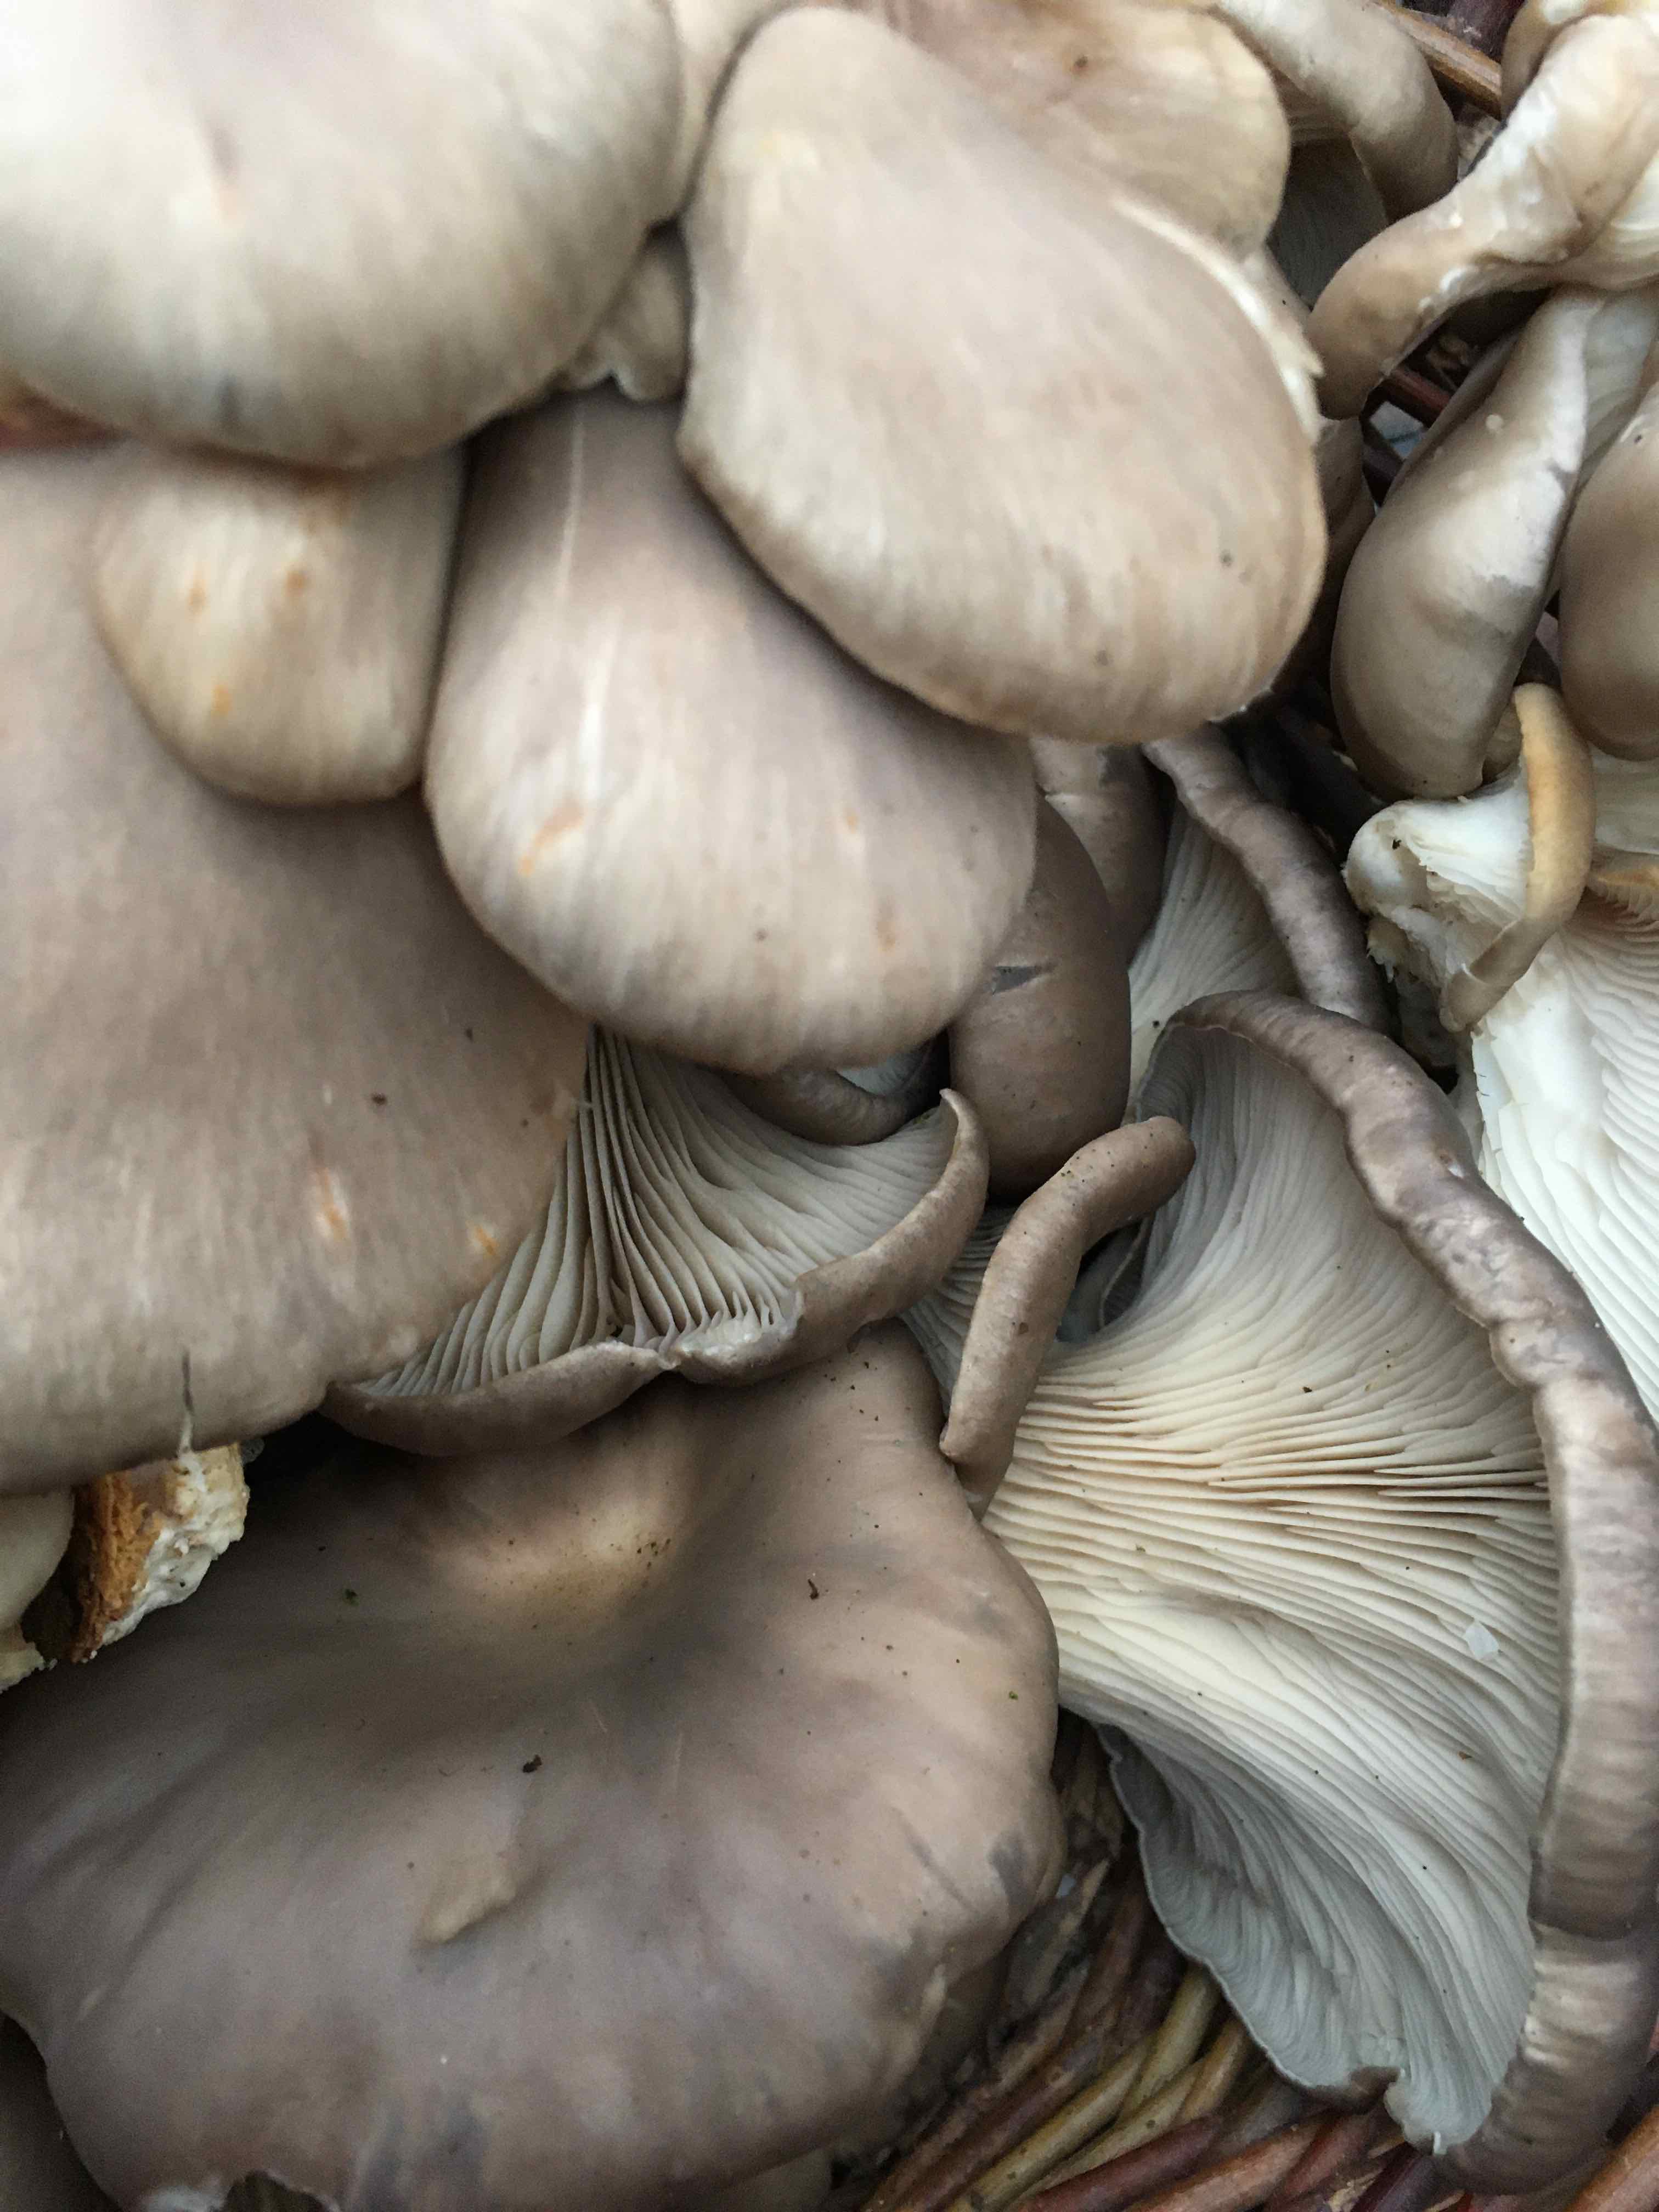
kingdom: Fungi
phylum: Basidiomycota
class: Agaricomycetes
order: Agaricales
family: Pleurotaceae
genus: Pleurotus
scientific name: Pleurotus ostreatus
